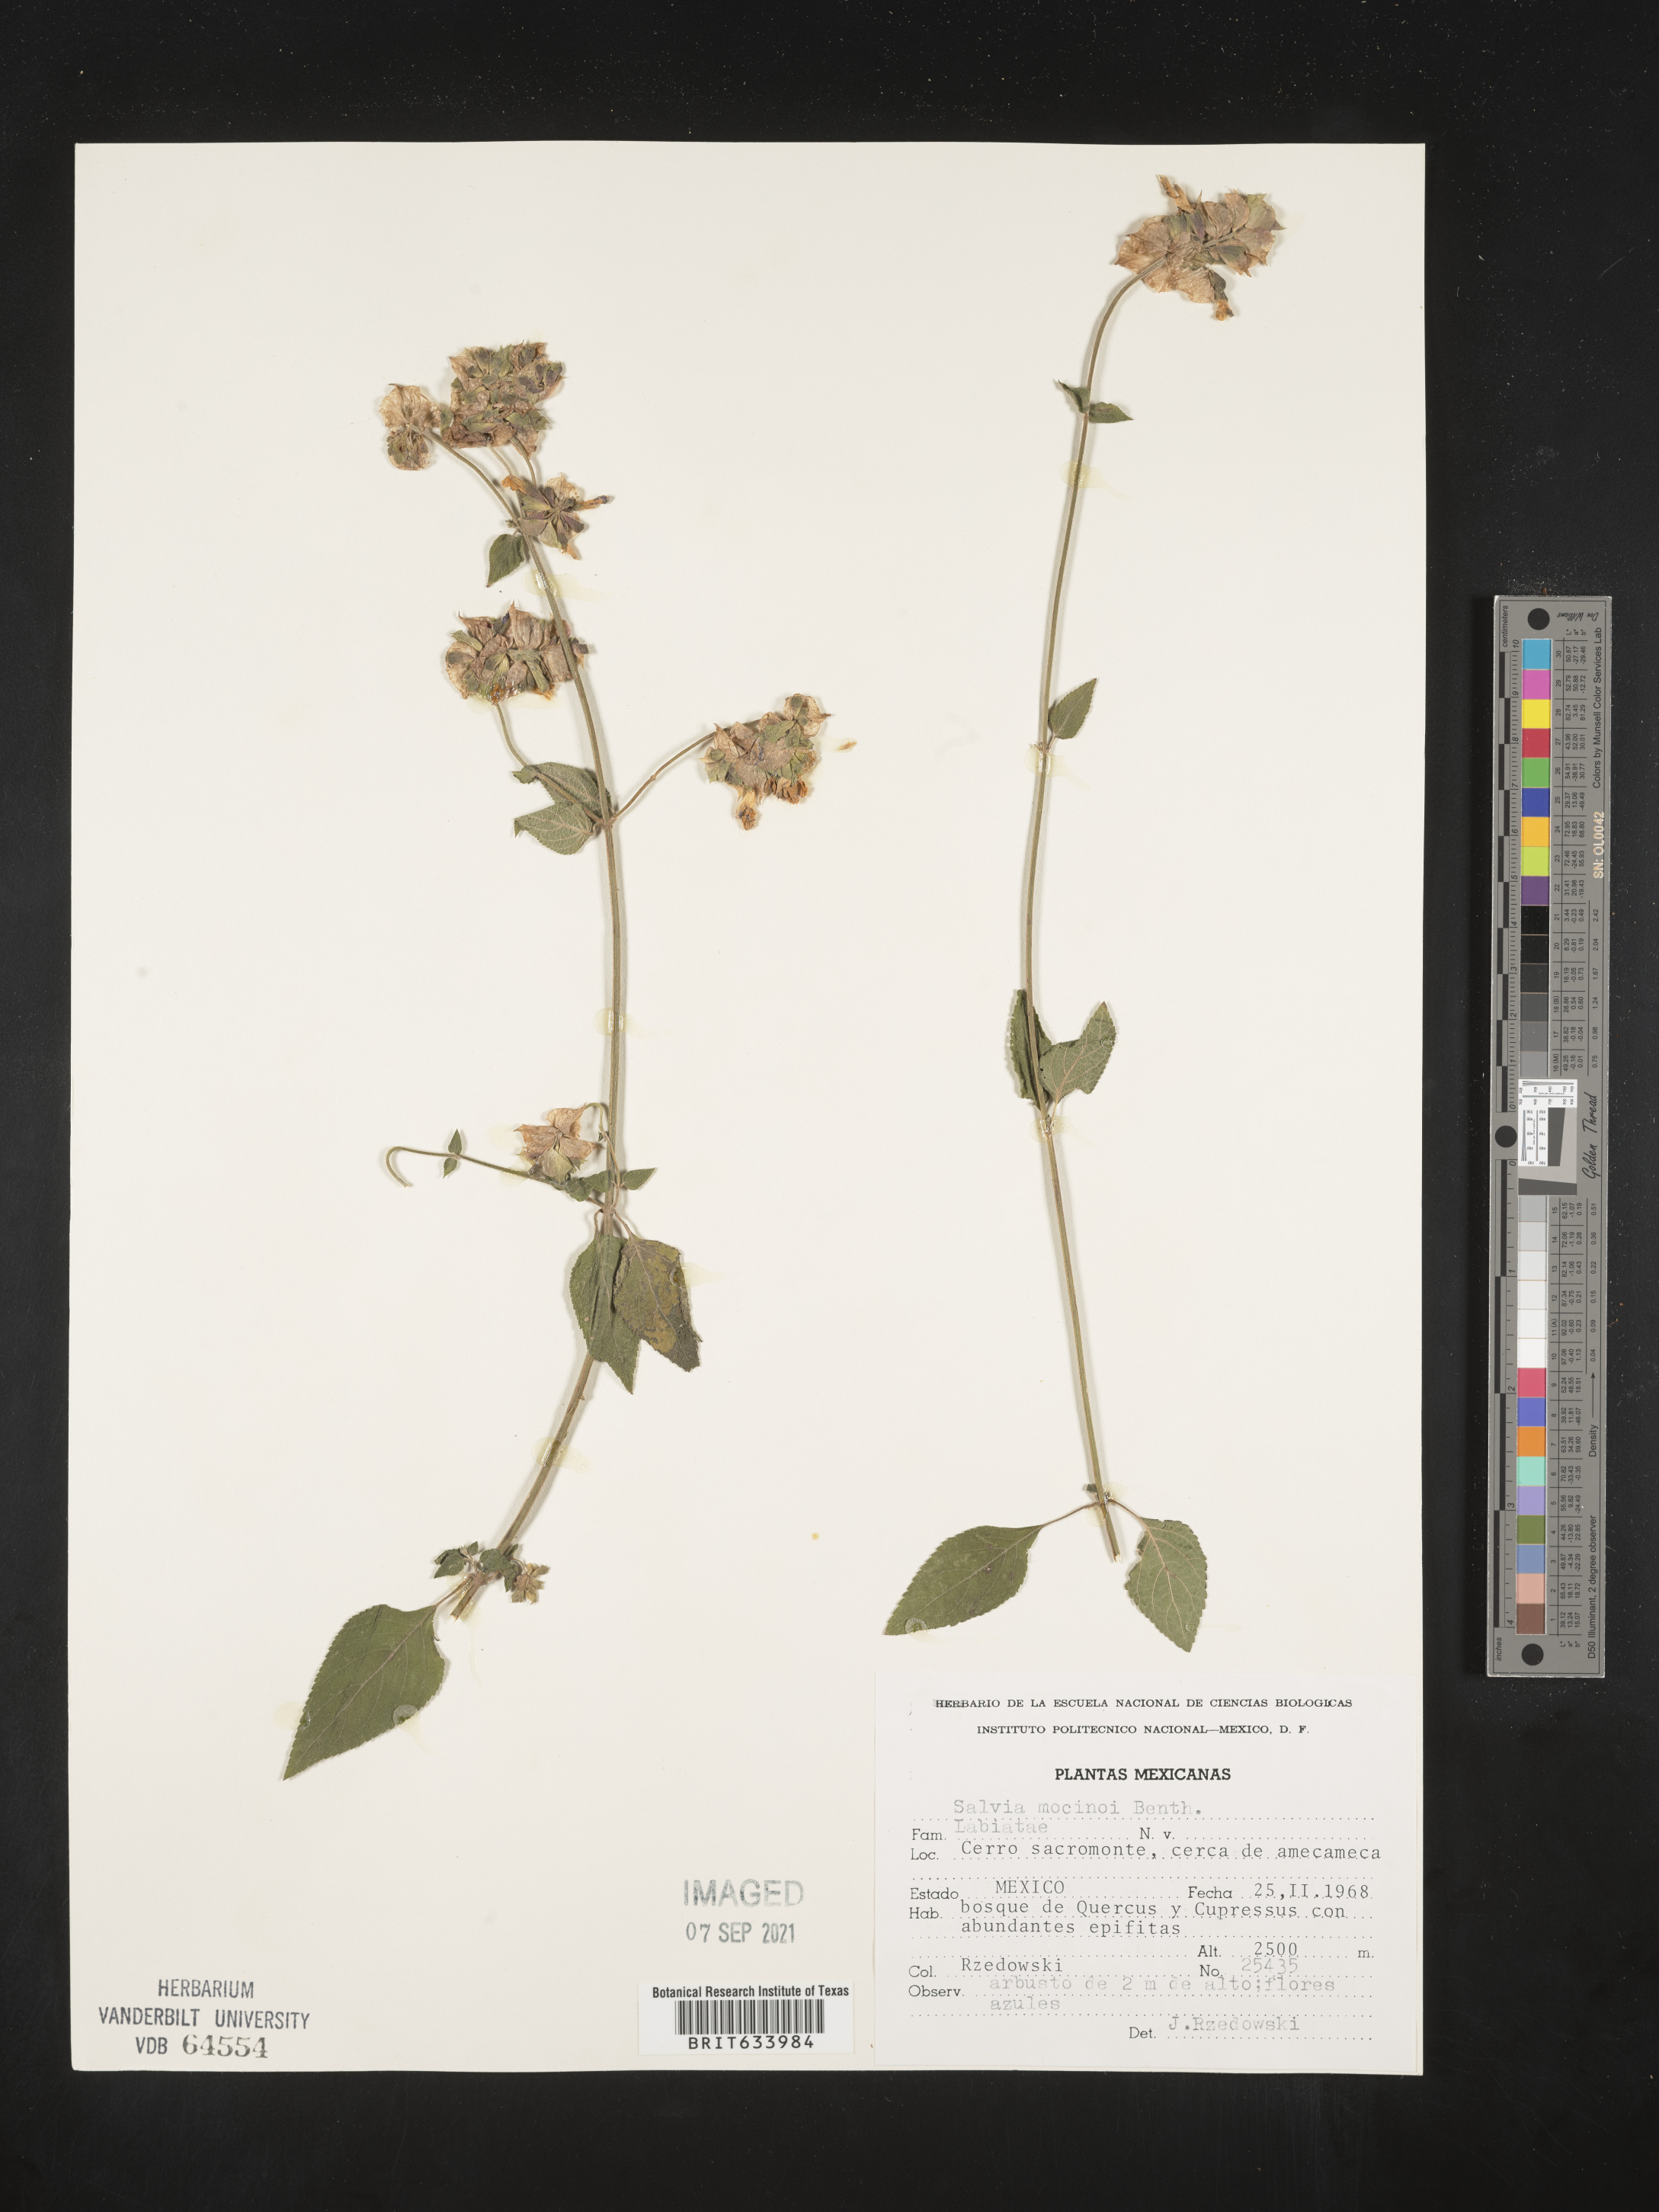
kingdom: Plantae
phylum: Tracheophyta
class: Magnoliopsida
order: Lamiales
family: Lamiaceae
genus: Salvia
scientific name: Salvia
